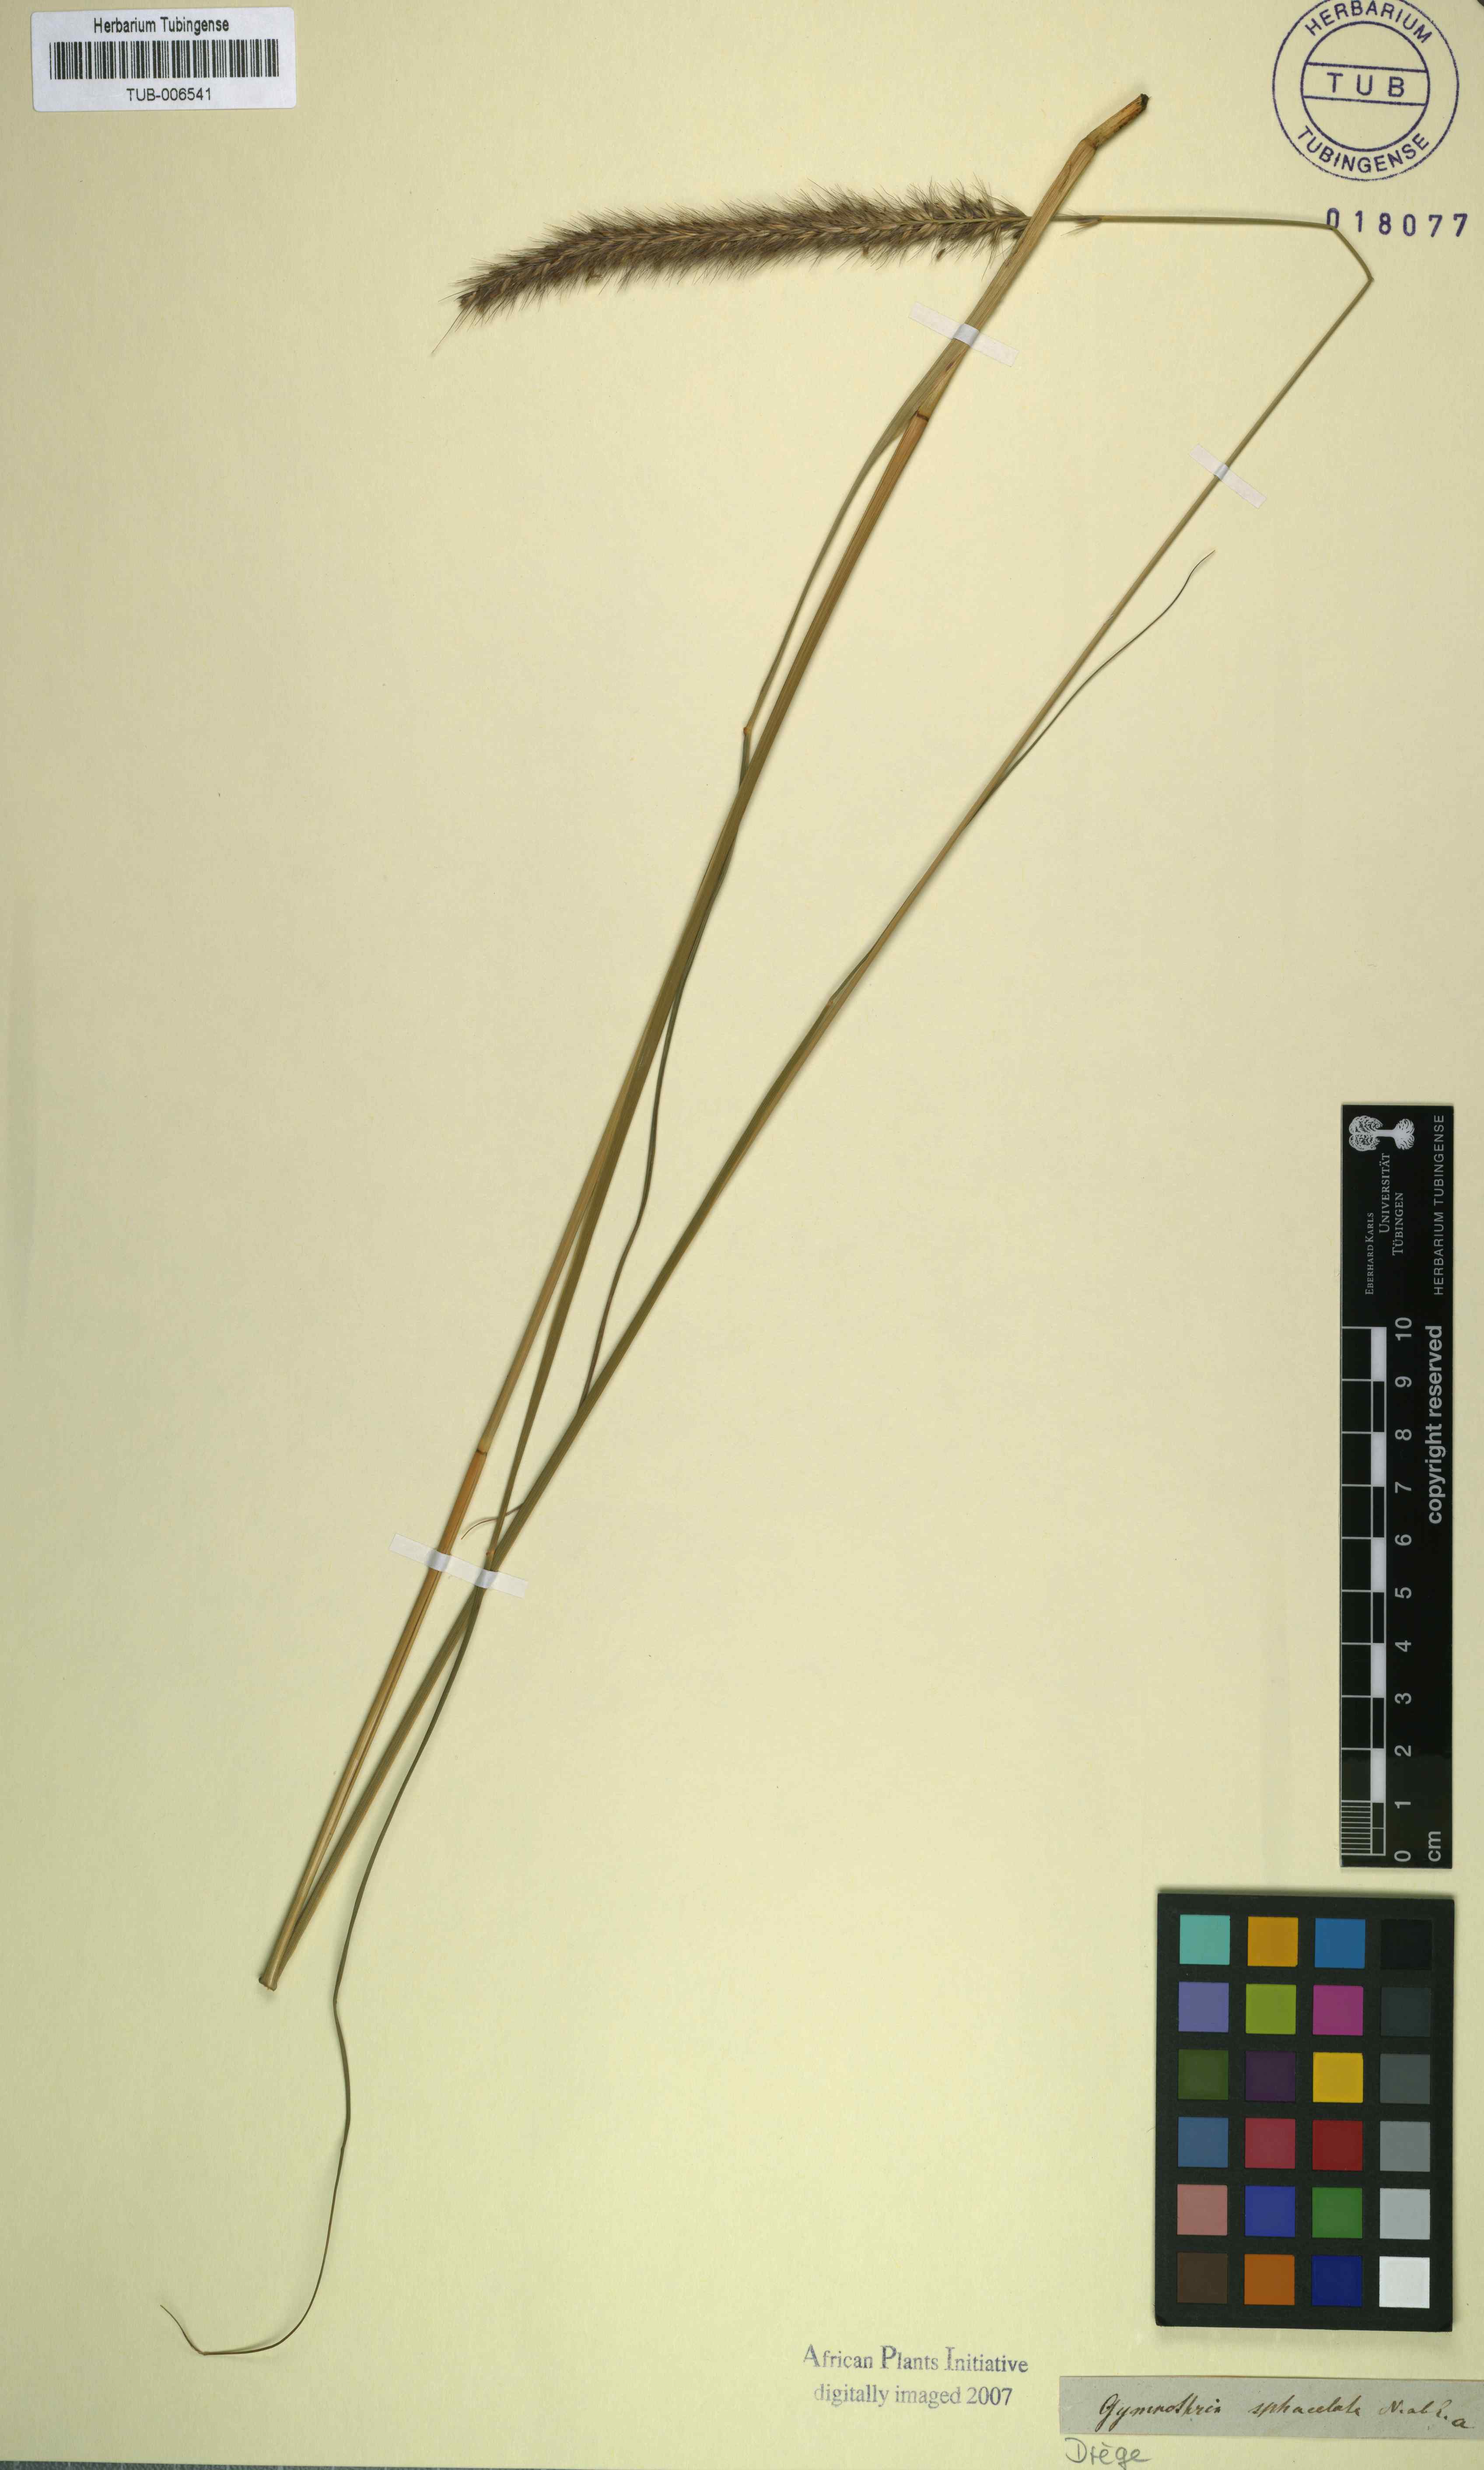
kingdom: Plantae
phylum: Tracheophyta
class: Liliopsida
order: Poales
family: Poaceae
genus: Cenchrus
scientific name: Cenchrus Pennisetum spec
